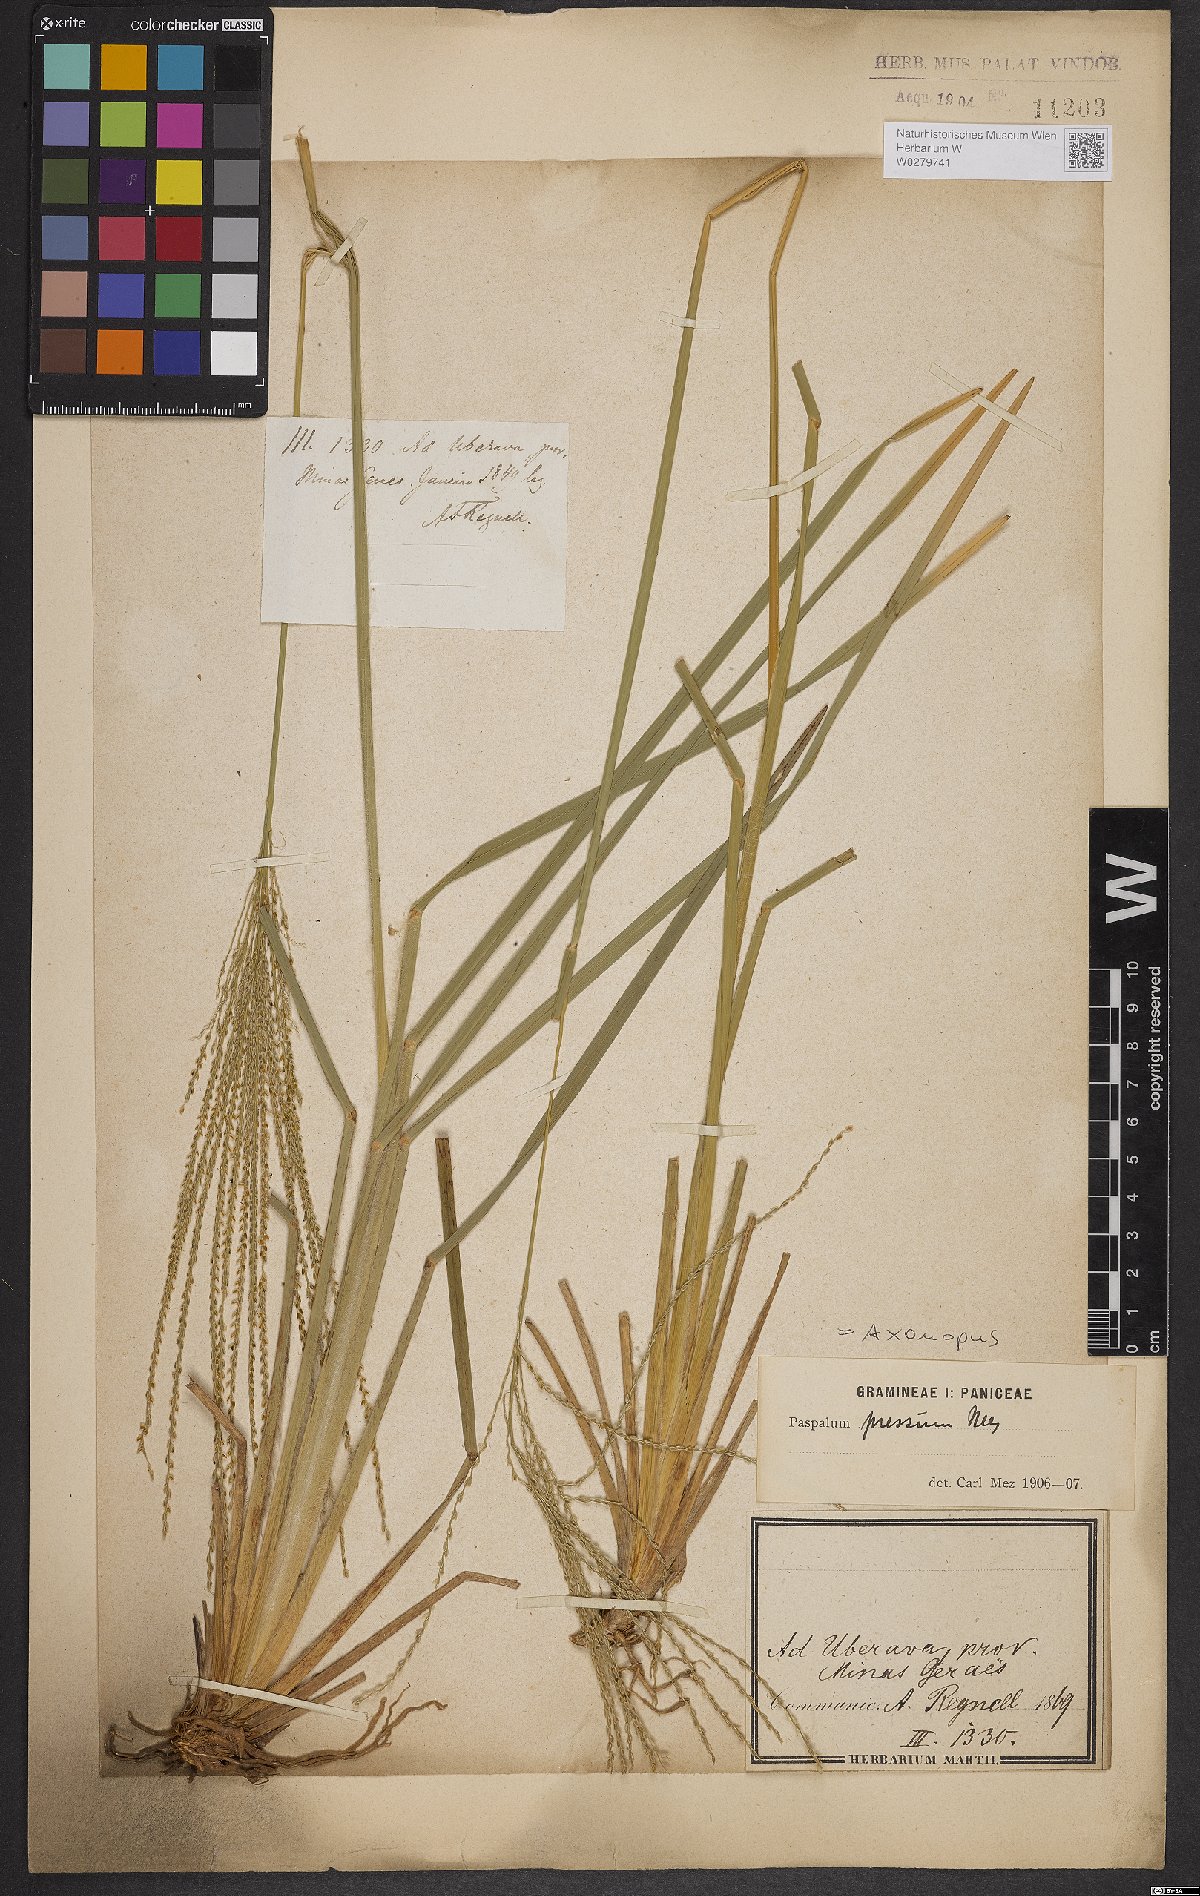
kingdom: Plantae
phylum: Tracheophyta
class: Liliopsida
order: Poales
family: Poaceae
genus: Axonopus
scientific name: Axonopus pressus
